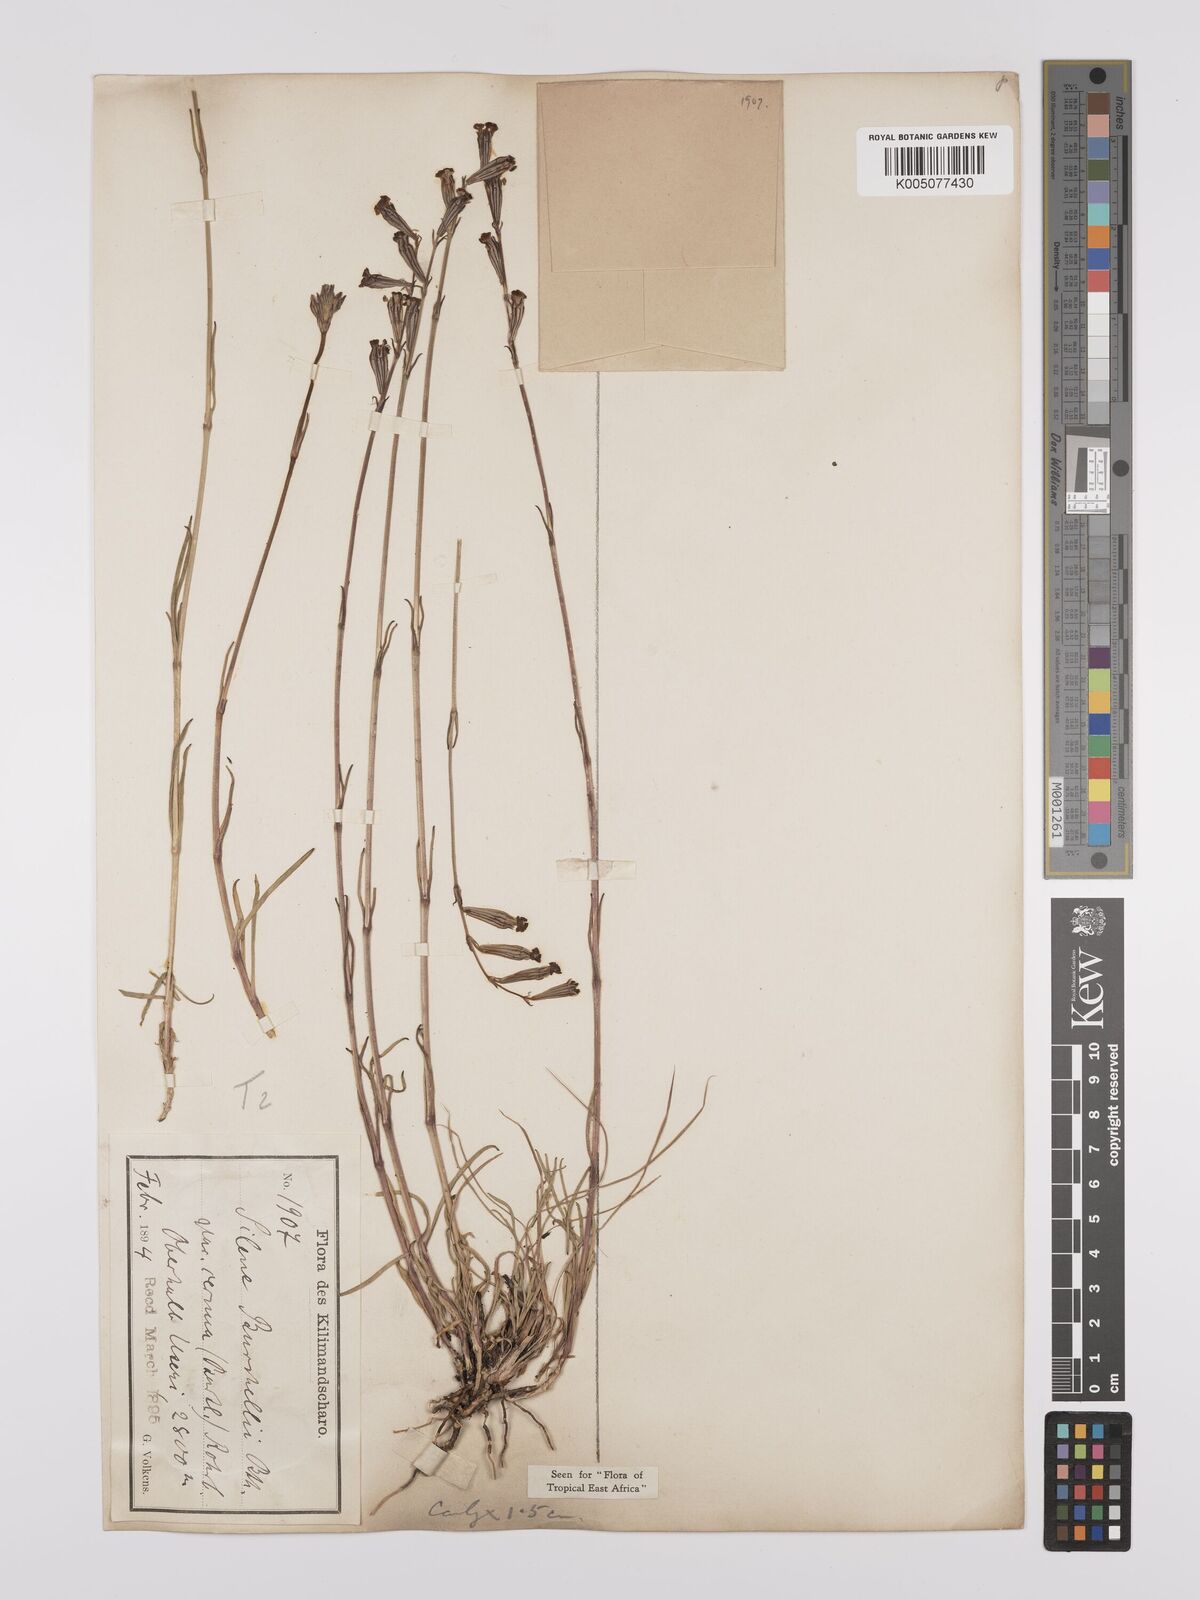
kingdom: Plantae
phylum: Tracheophyta
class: Magnoliopsida
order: Caryophyllales
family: Caryophyllaceae
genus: Silene
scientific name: Silene burchellii
